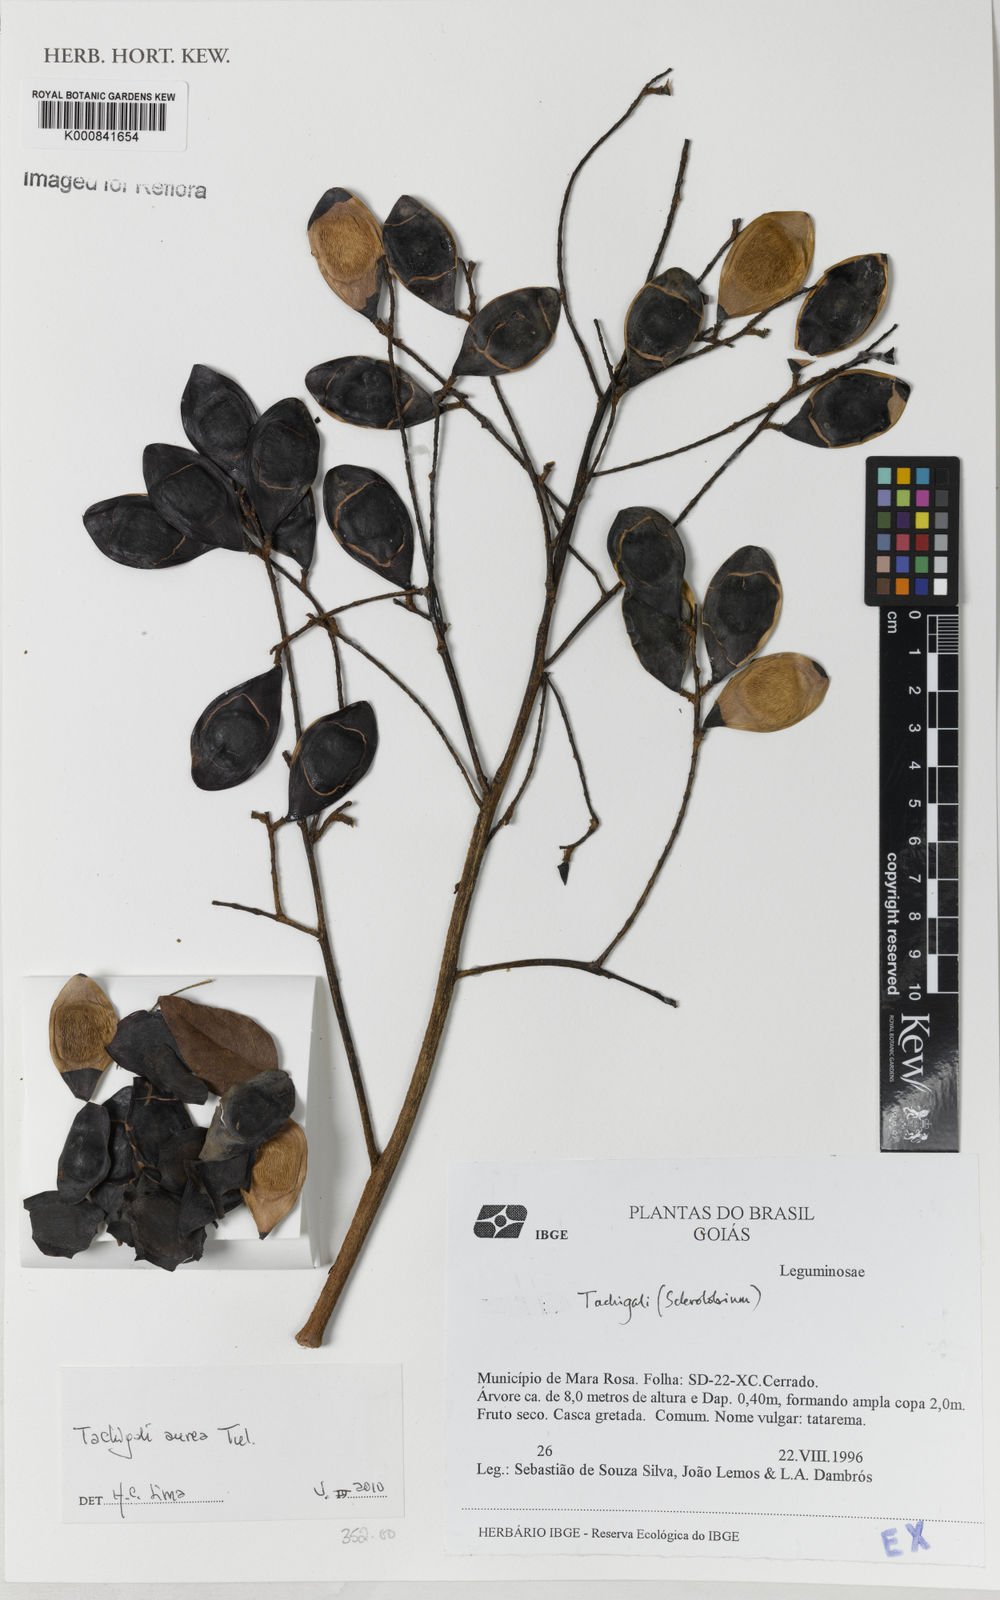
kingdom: Plantae
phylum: Tracheophyta
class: Magnoliopsida
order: Fabales
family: Fabaceae
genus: Tachigali
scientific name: Tachigali aurea
